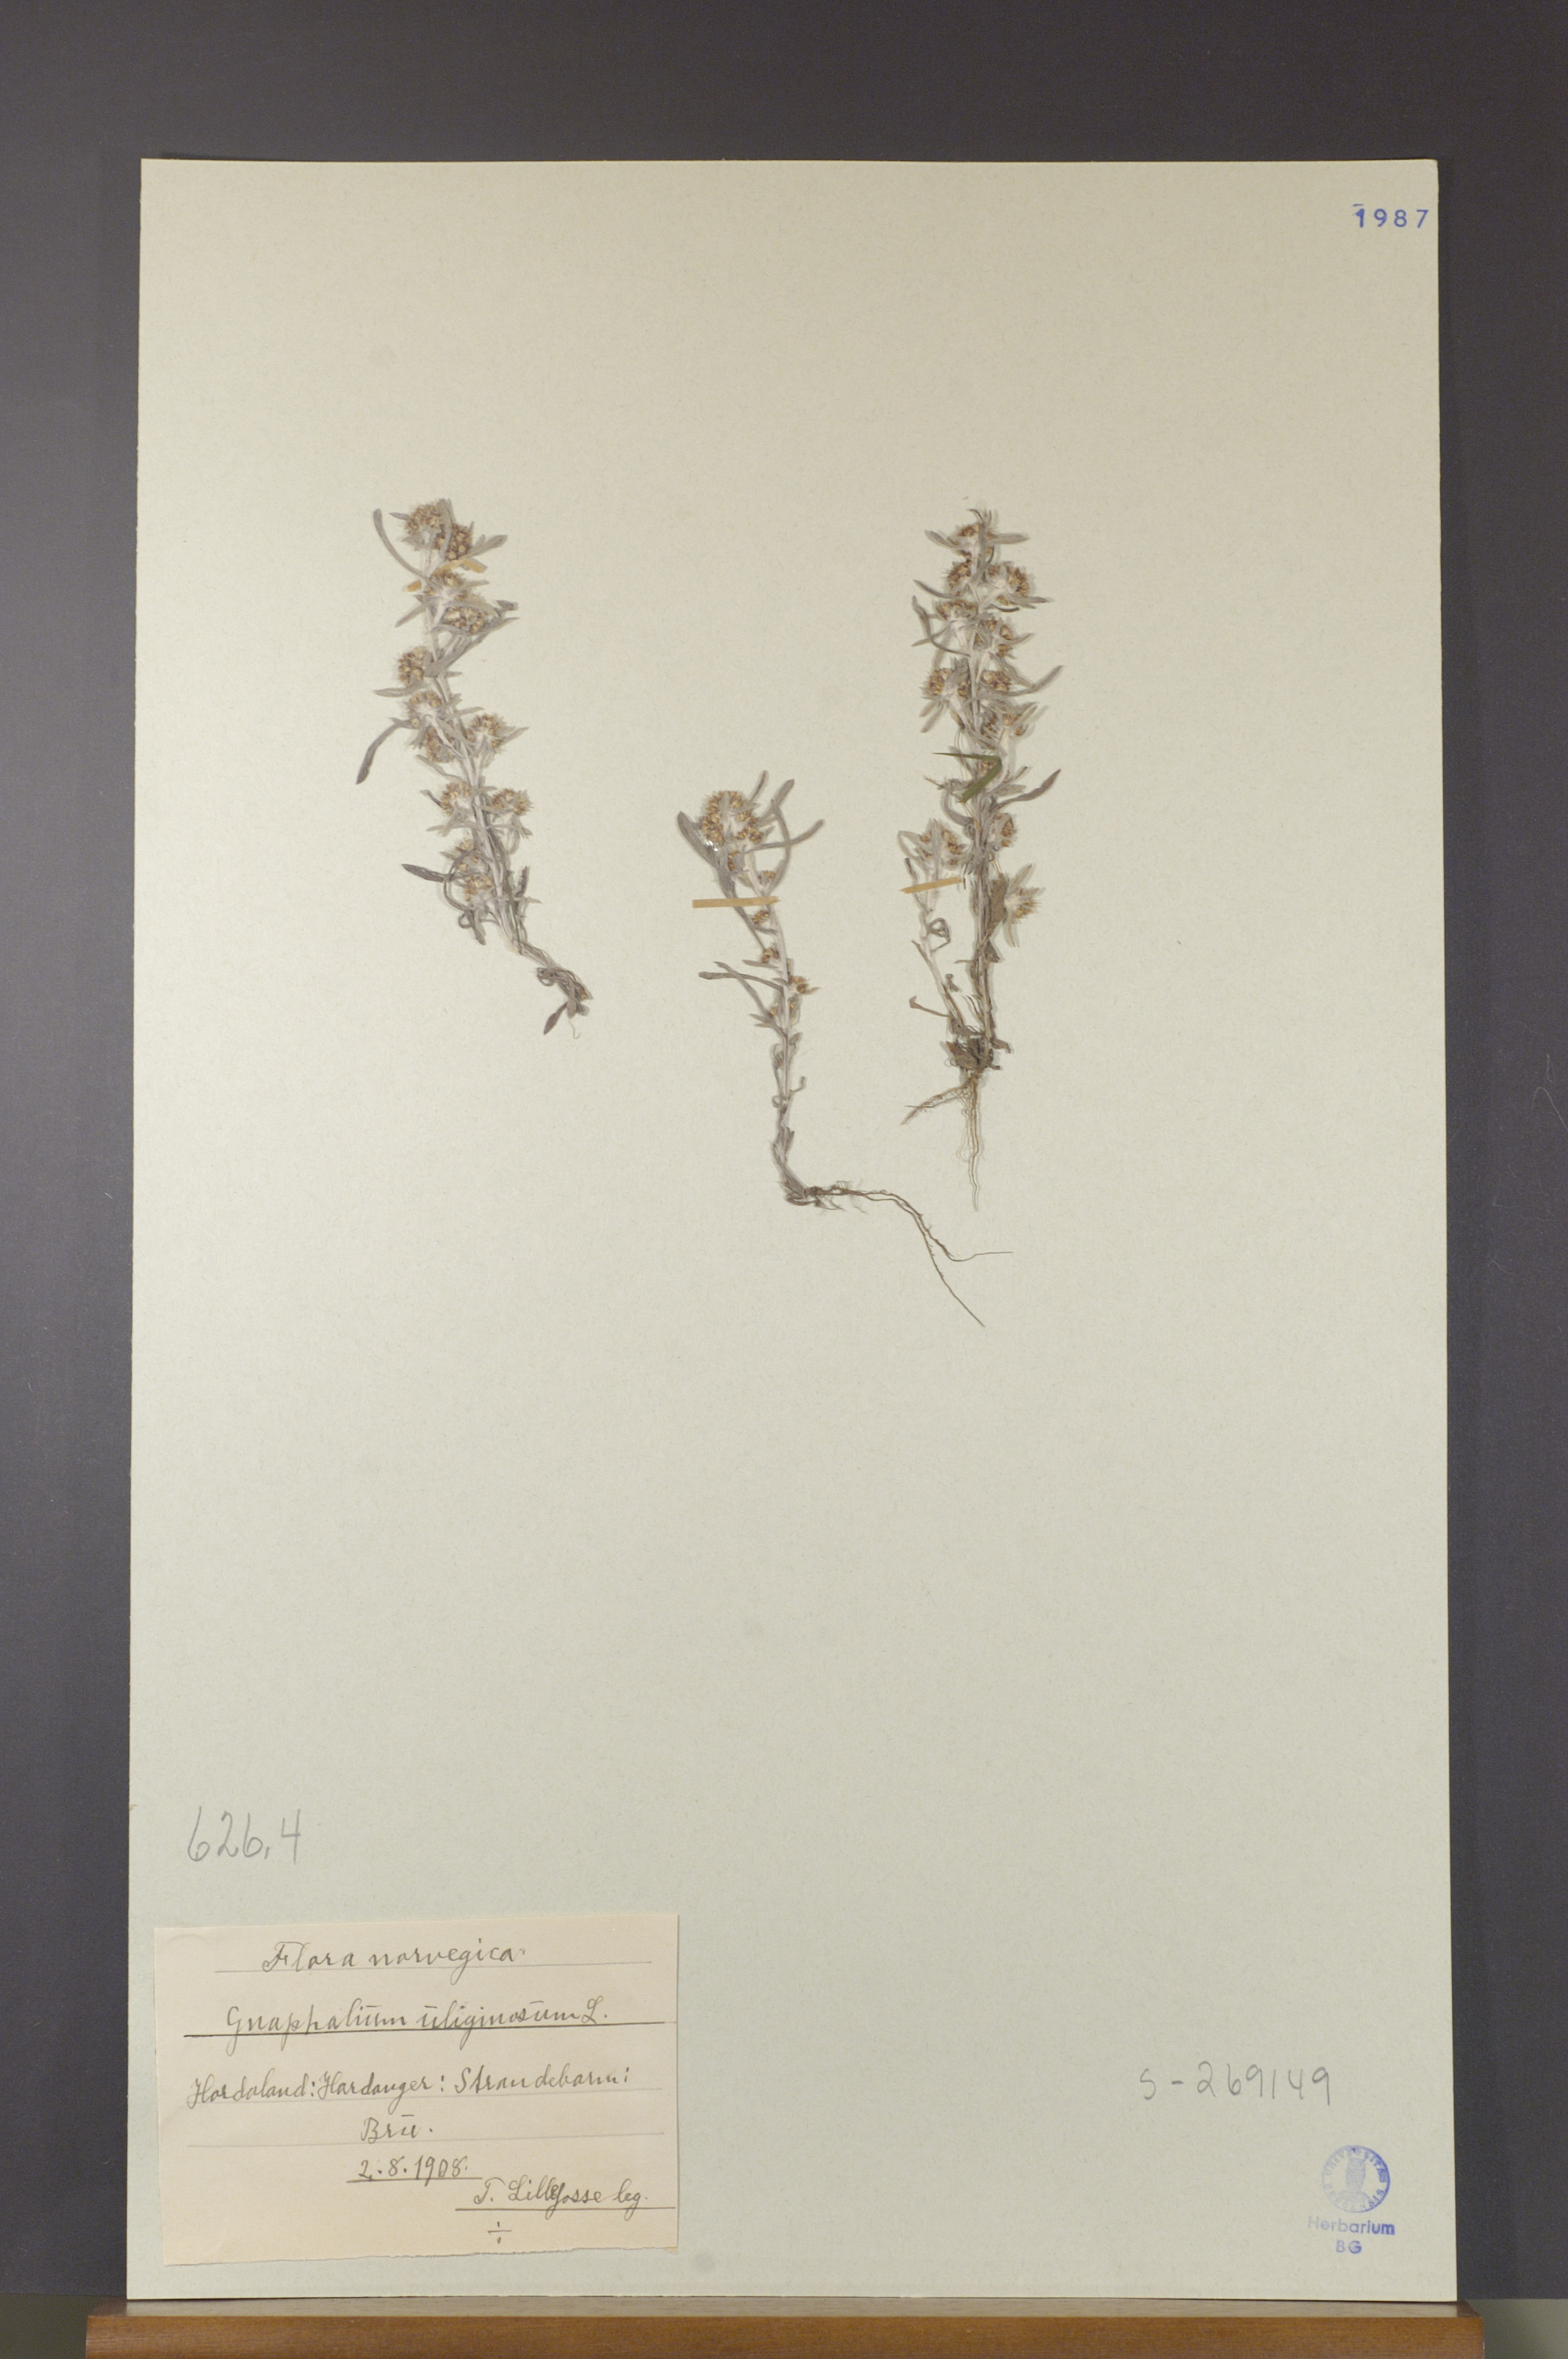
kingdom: Plantae
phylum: Tracheophyta
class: Magnoliopsida
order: Asterales
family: Asteraceae
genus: Gnaphalium
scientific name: Gnaphalium uliginosum
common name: Marsh cudweed
